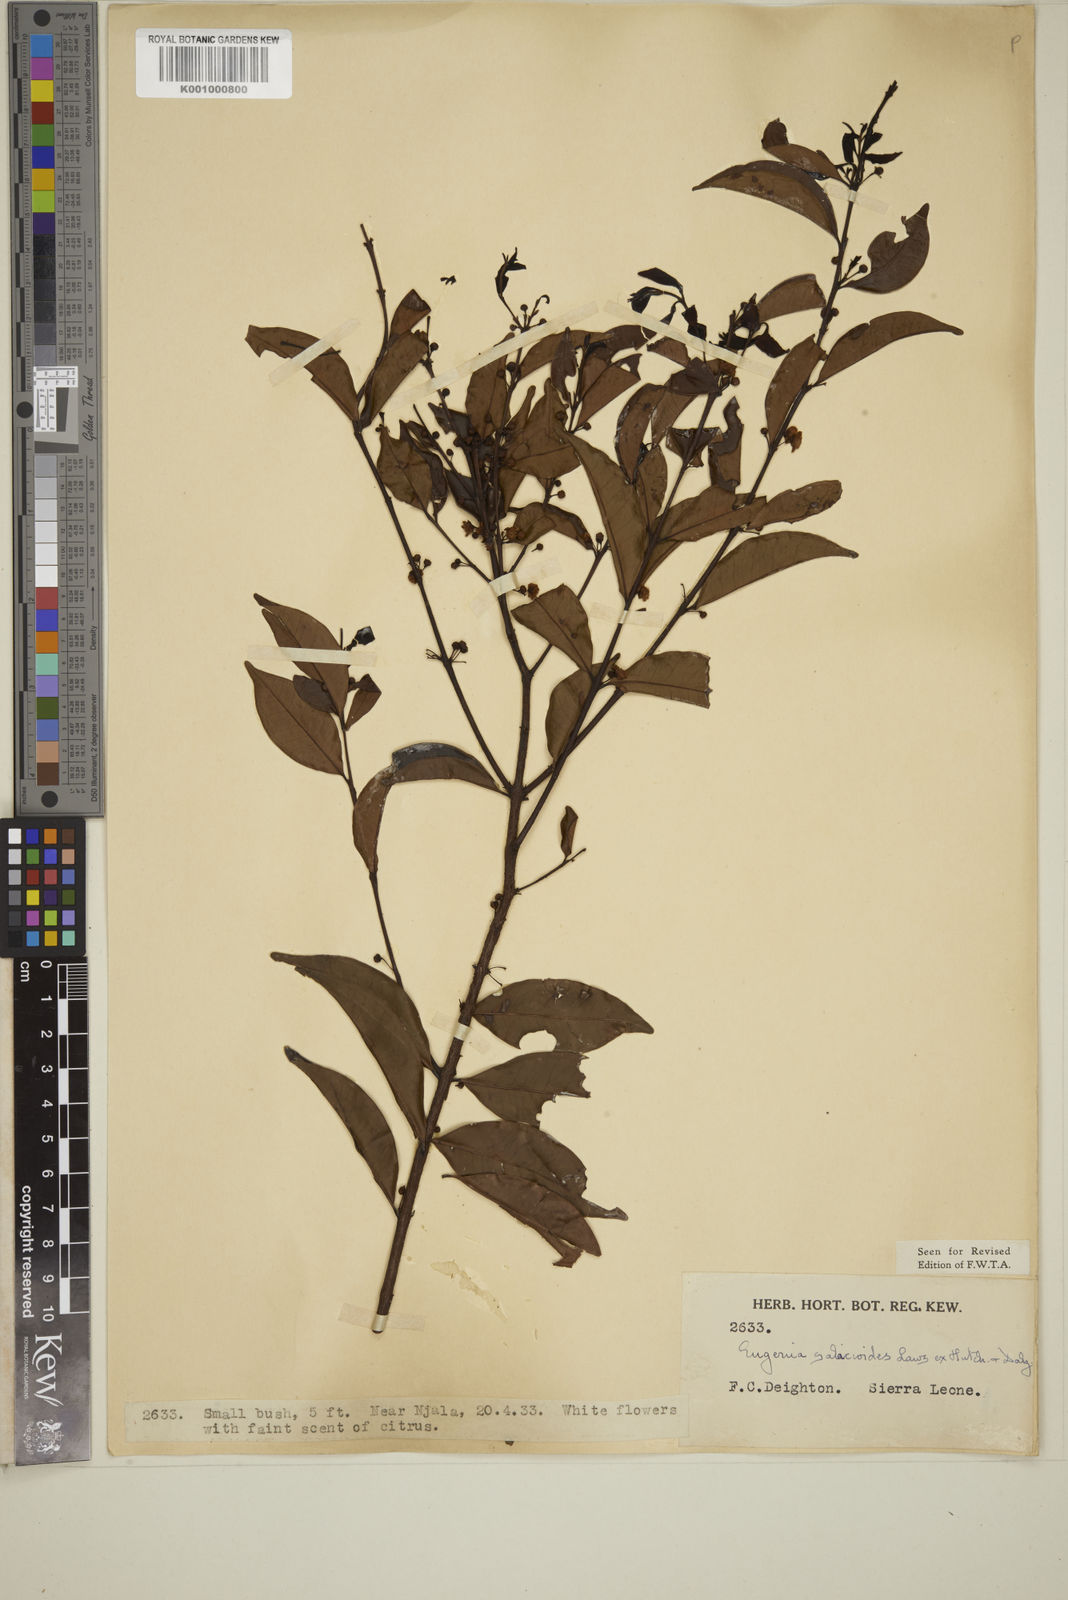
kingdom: Plantae
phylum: Tracheophyta
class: Magnoliopsida
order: Myrtales
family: Myrtaceae
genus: Eugenia
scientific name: Eugenia
